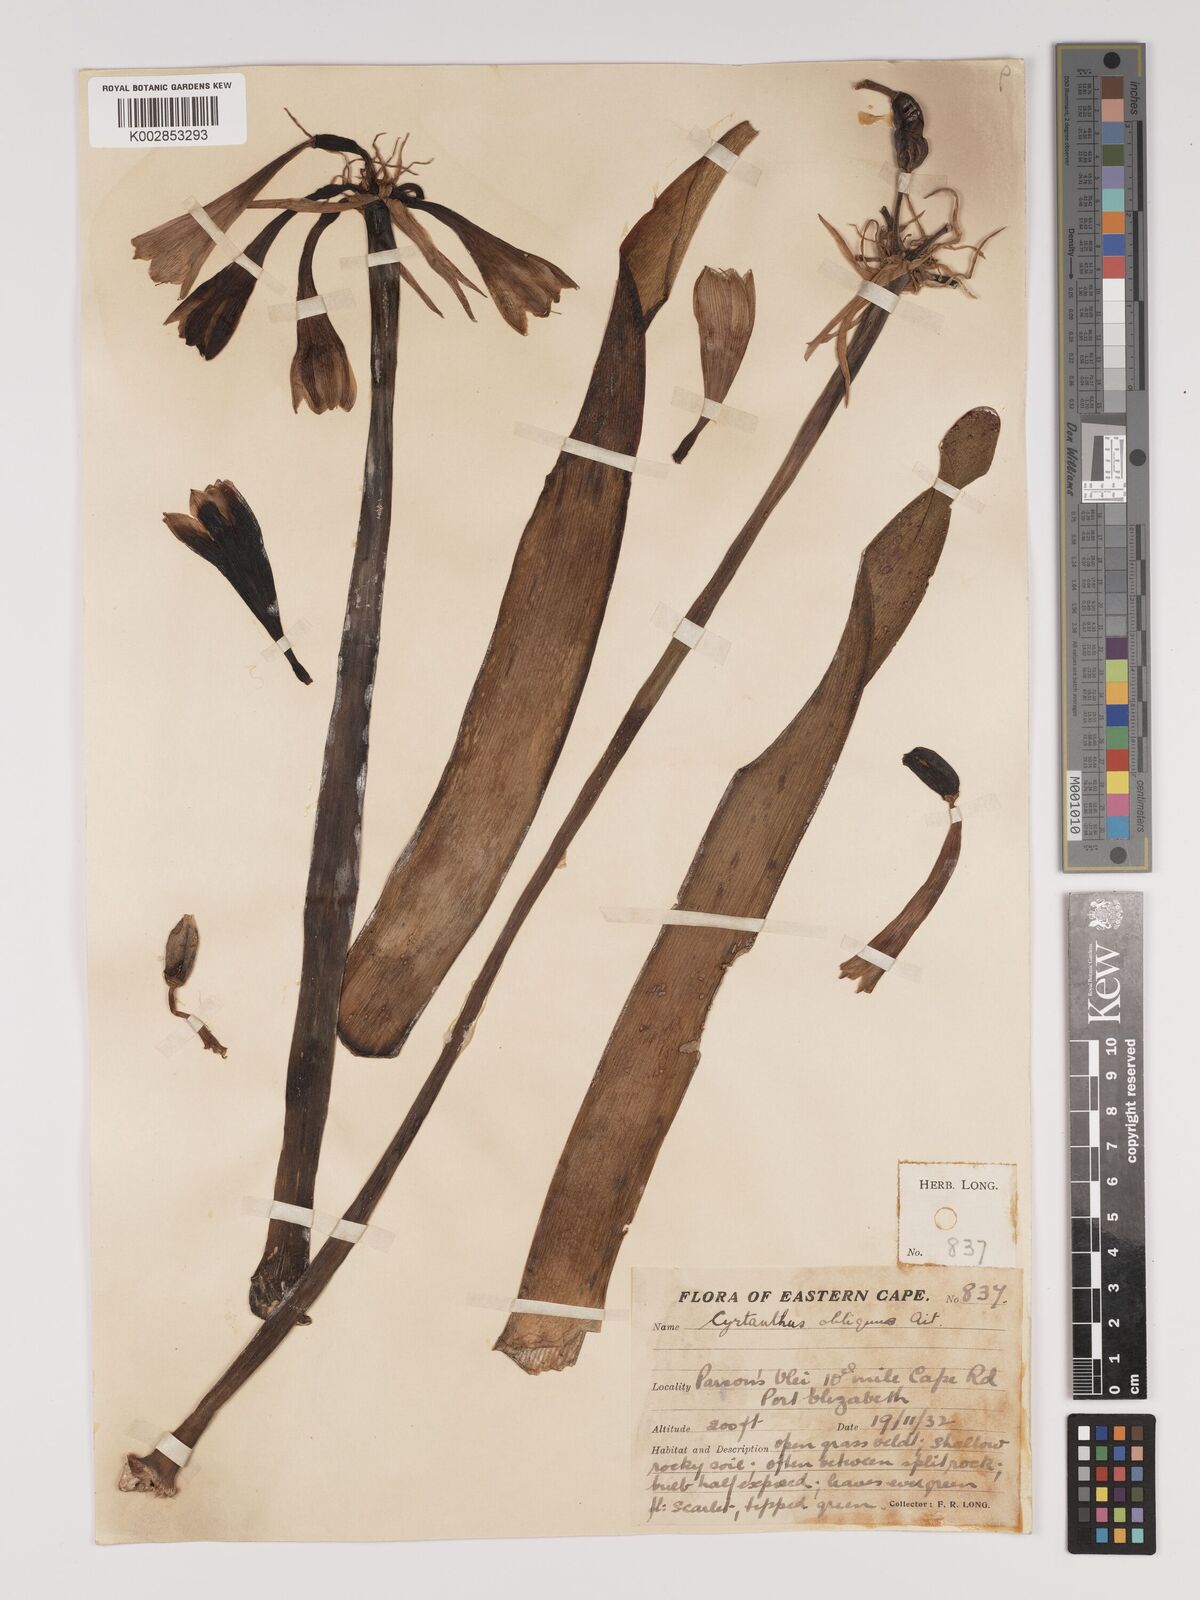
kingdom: Plantae
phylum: Tracheophyta
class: Liliopsida
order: Asparagales
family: Amaryllidaceae
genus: Cyrtanthus
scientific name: Cyrtanthus obliquus
